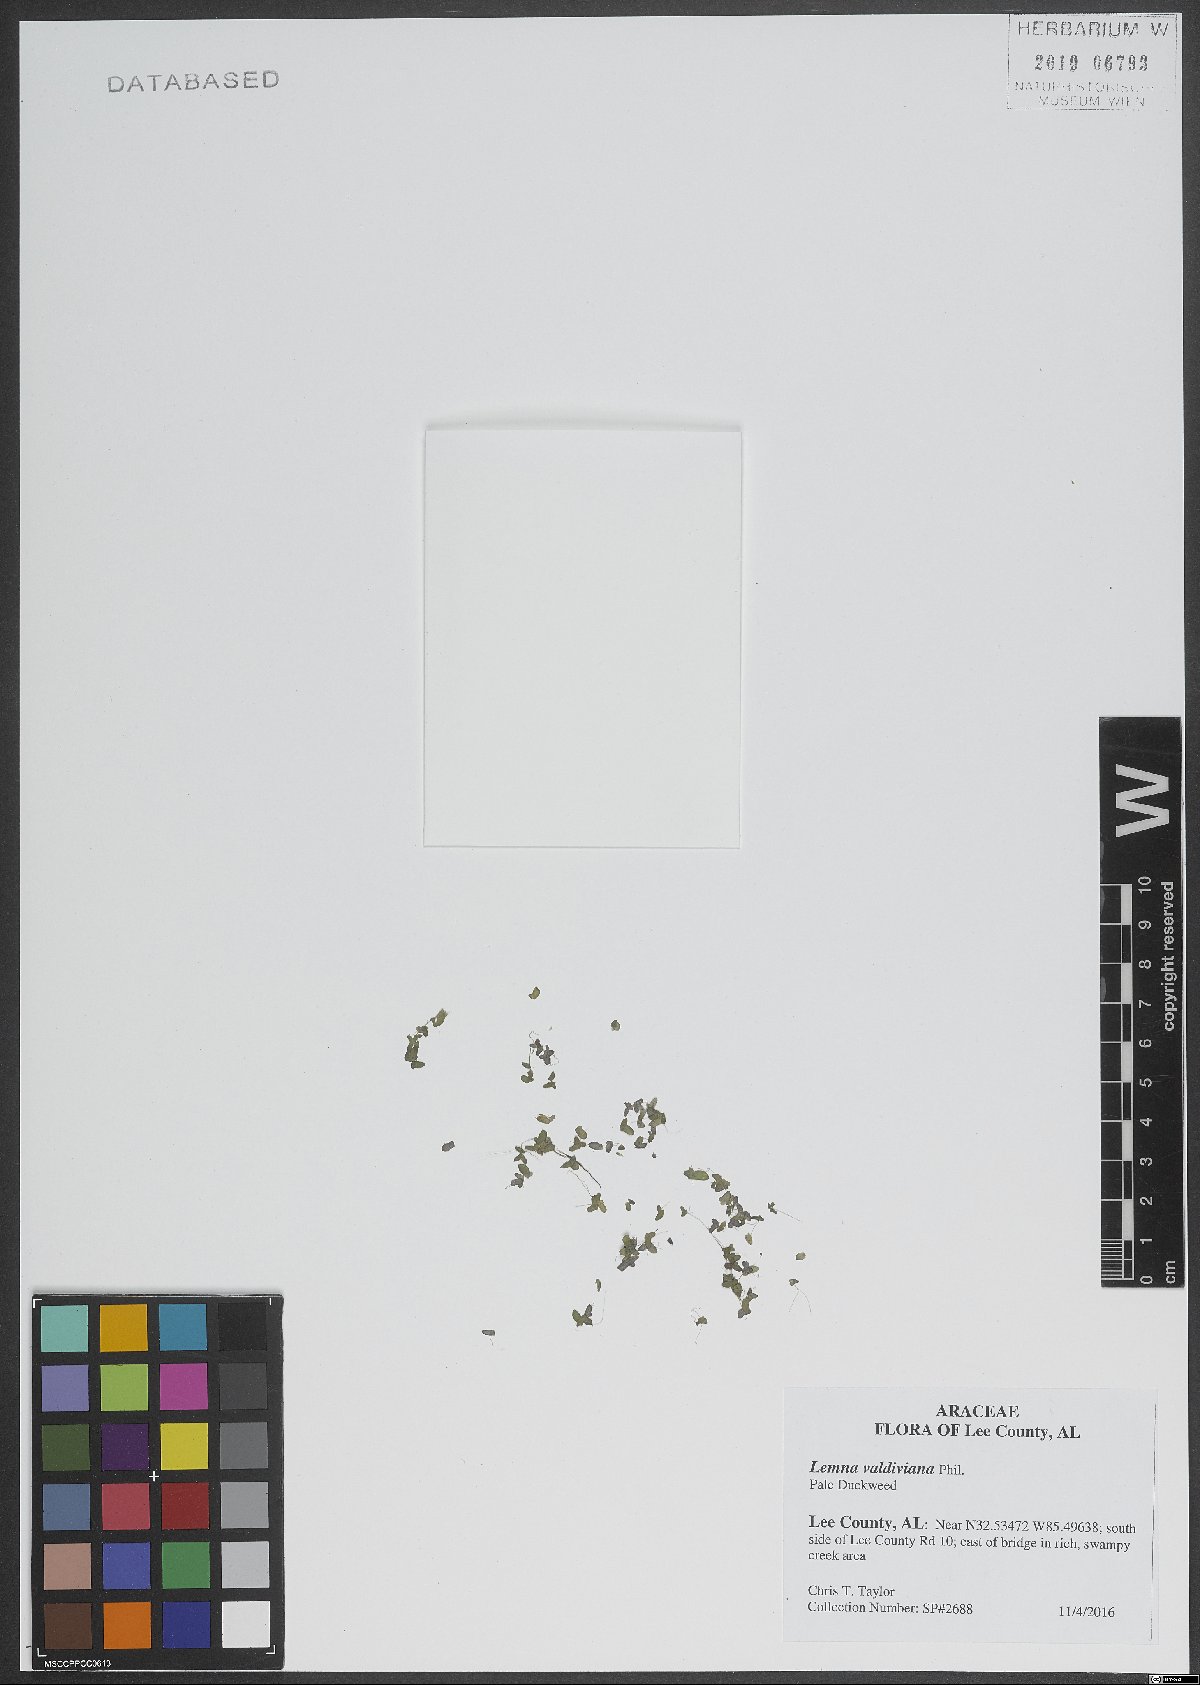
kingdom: Plantae
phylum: Tracheophyta
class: Liliopsida
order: Alismatales
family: Araceae
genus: Lemna
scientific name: Lemna valdiviana
